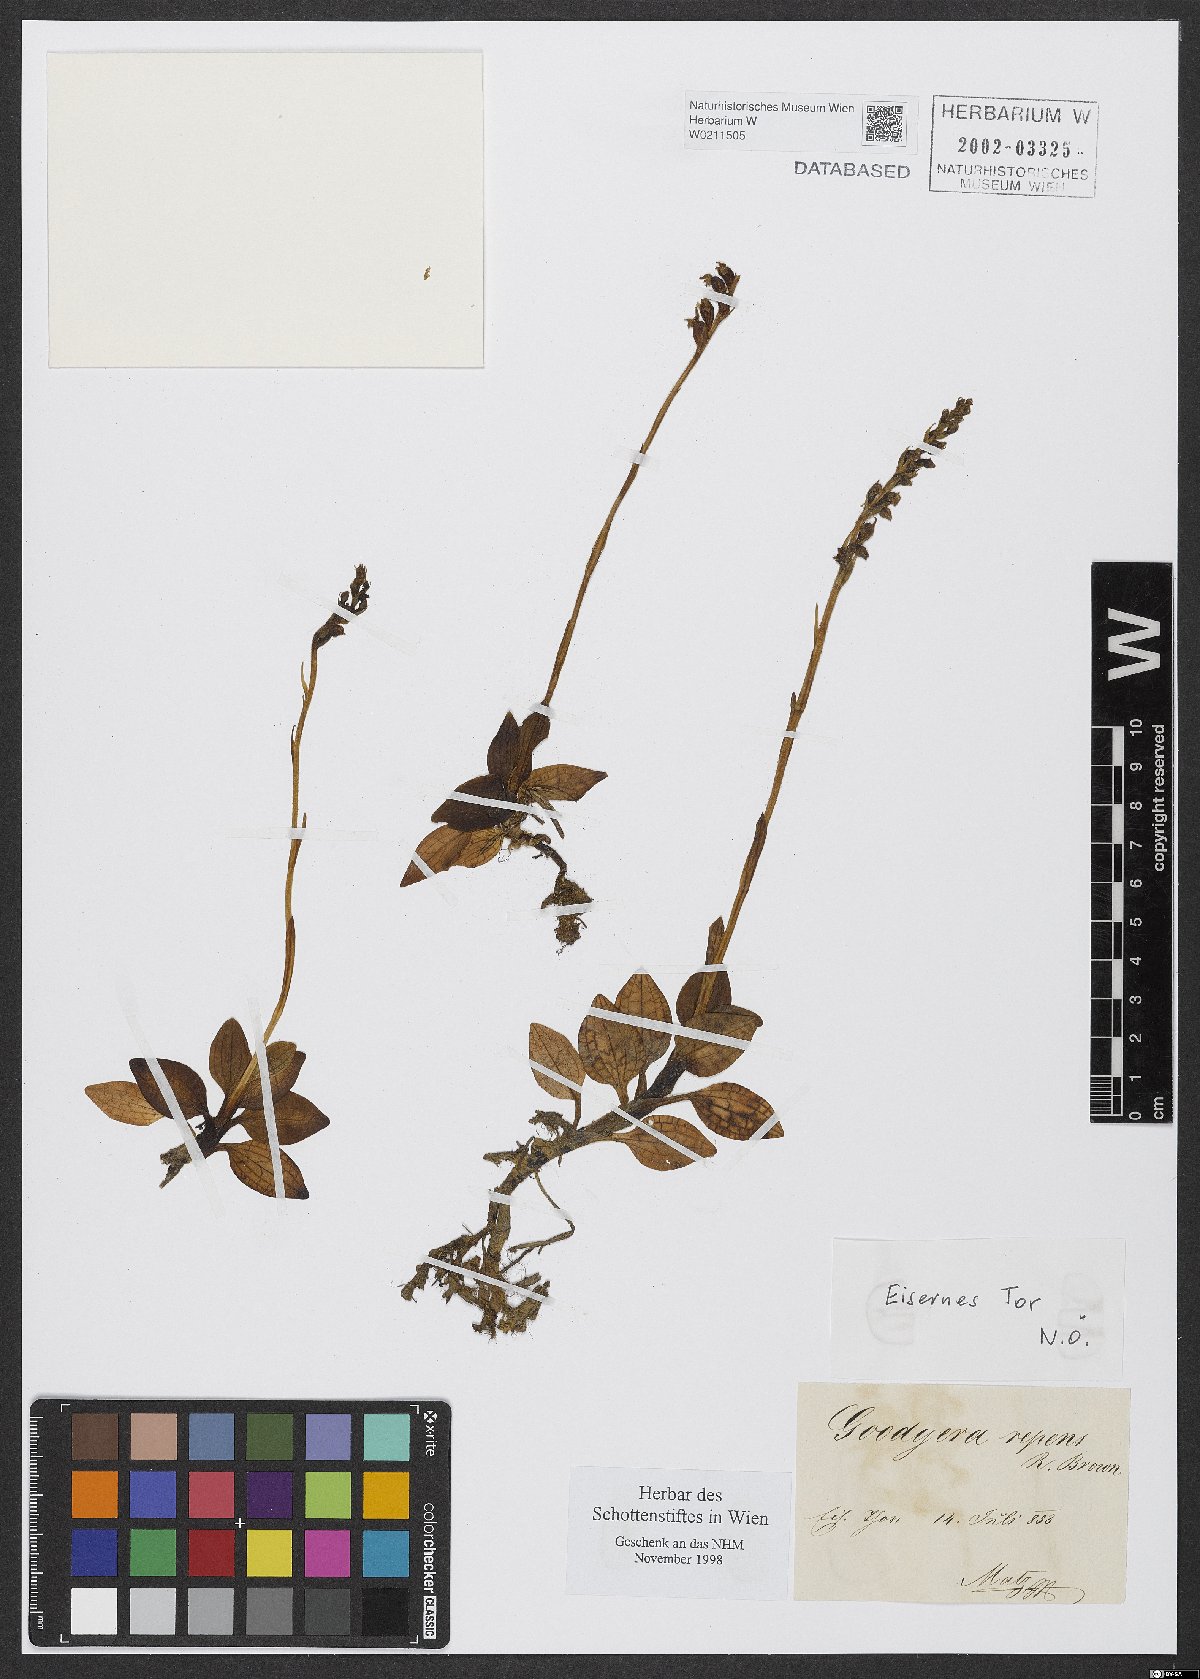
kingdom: Plantae
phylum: Tracheophyta
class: Liliopsida
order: Asparagales
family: Orchidaceae
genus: Goodyera
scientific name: Goodyera repens
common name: Creeping lady's-tresses
